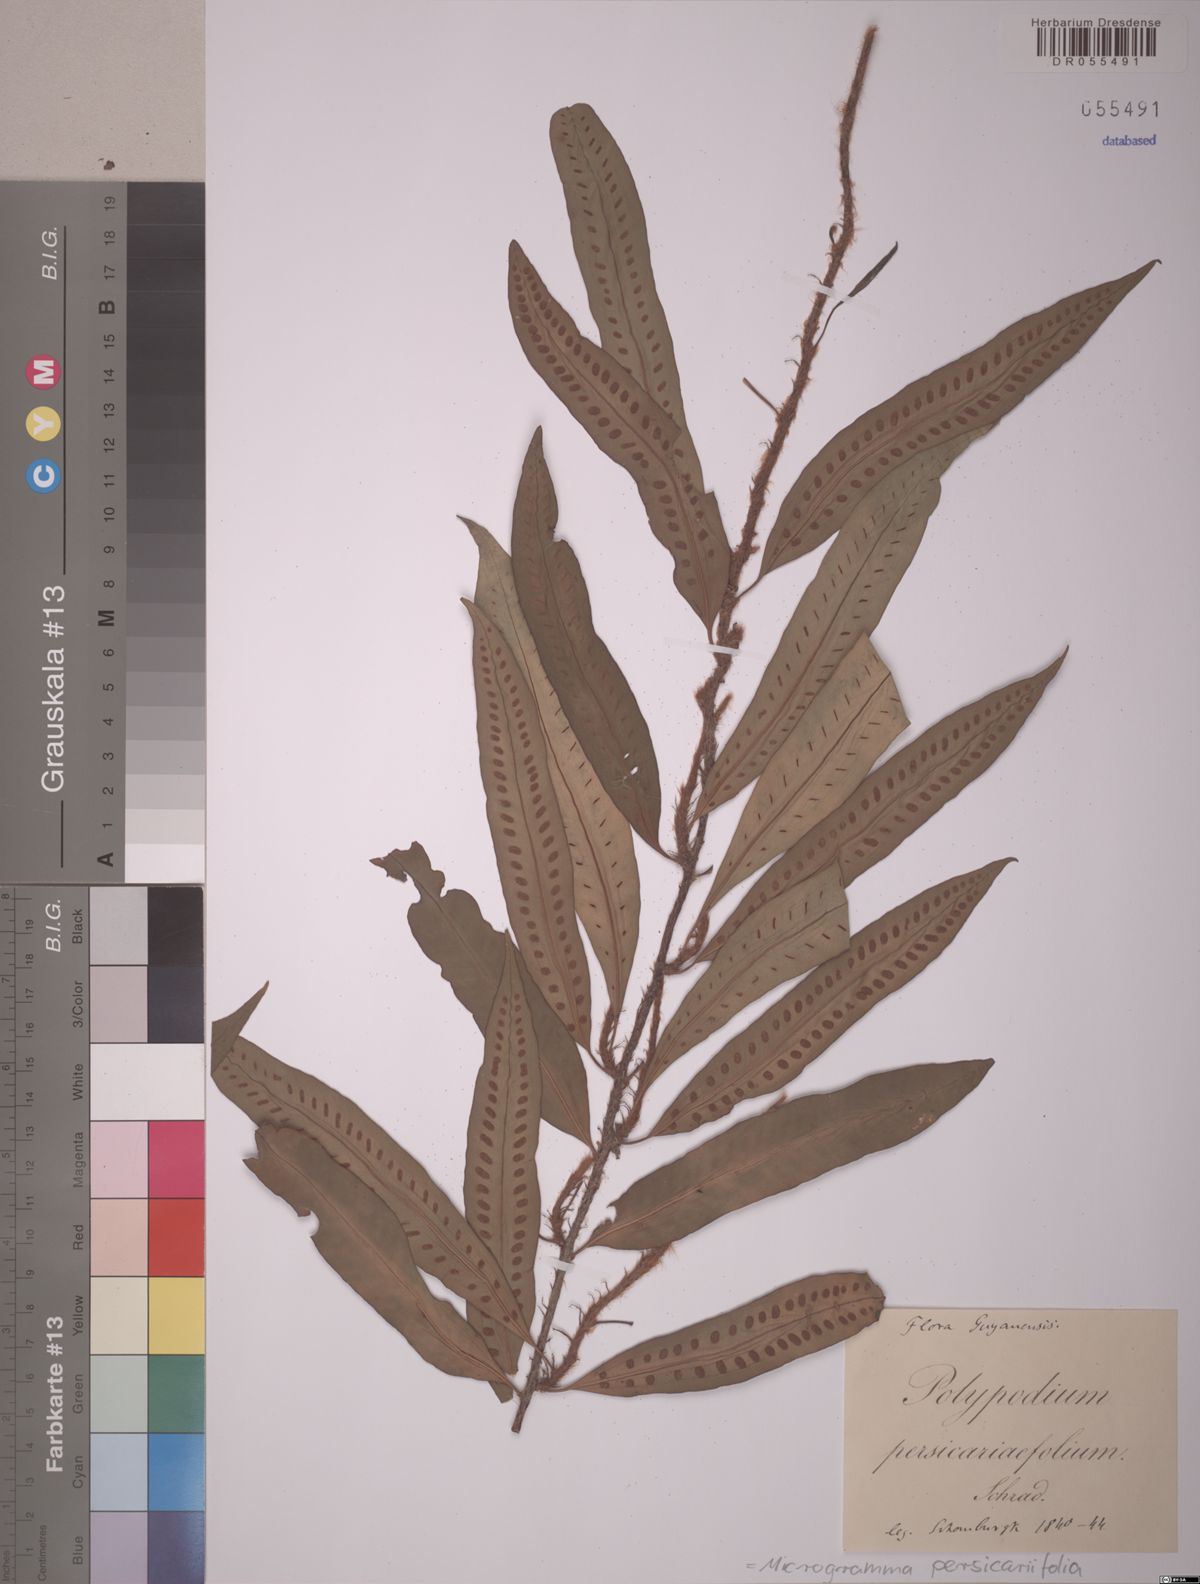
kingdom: Plantae
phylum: Tracheophyta
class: Polypodiopsida
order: Polypodiales
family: Polypodiaceae
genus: Microgramma
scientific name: Microgramma persicariifolia
